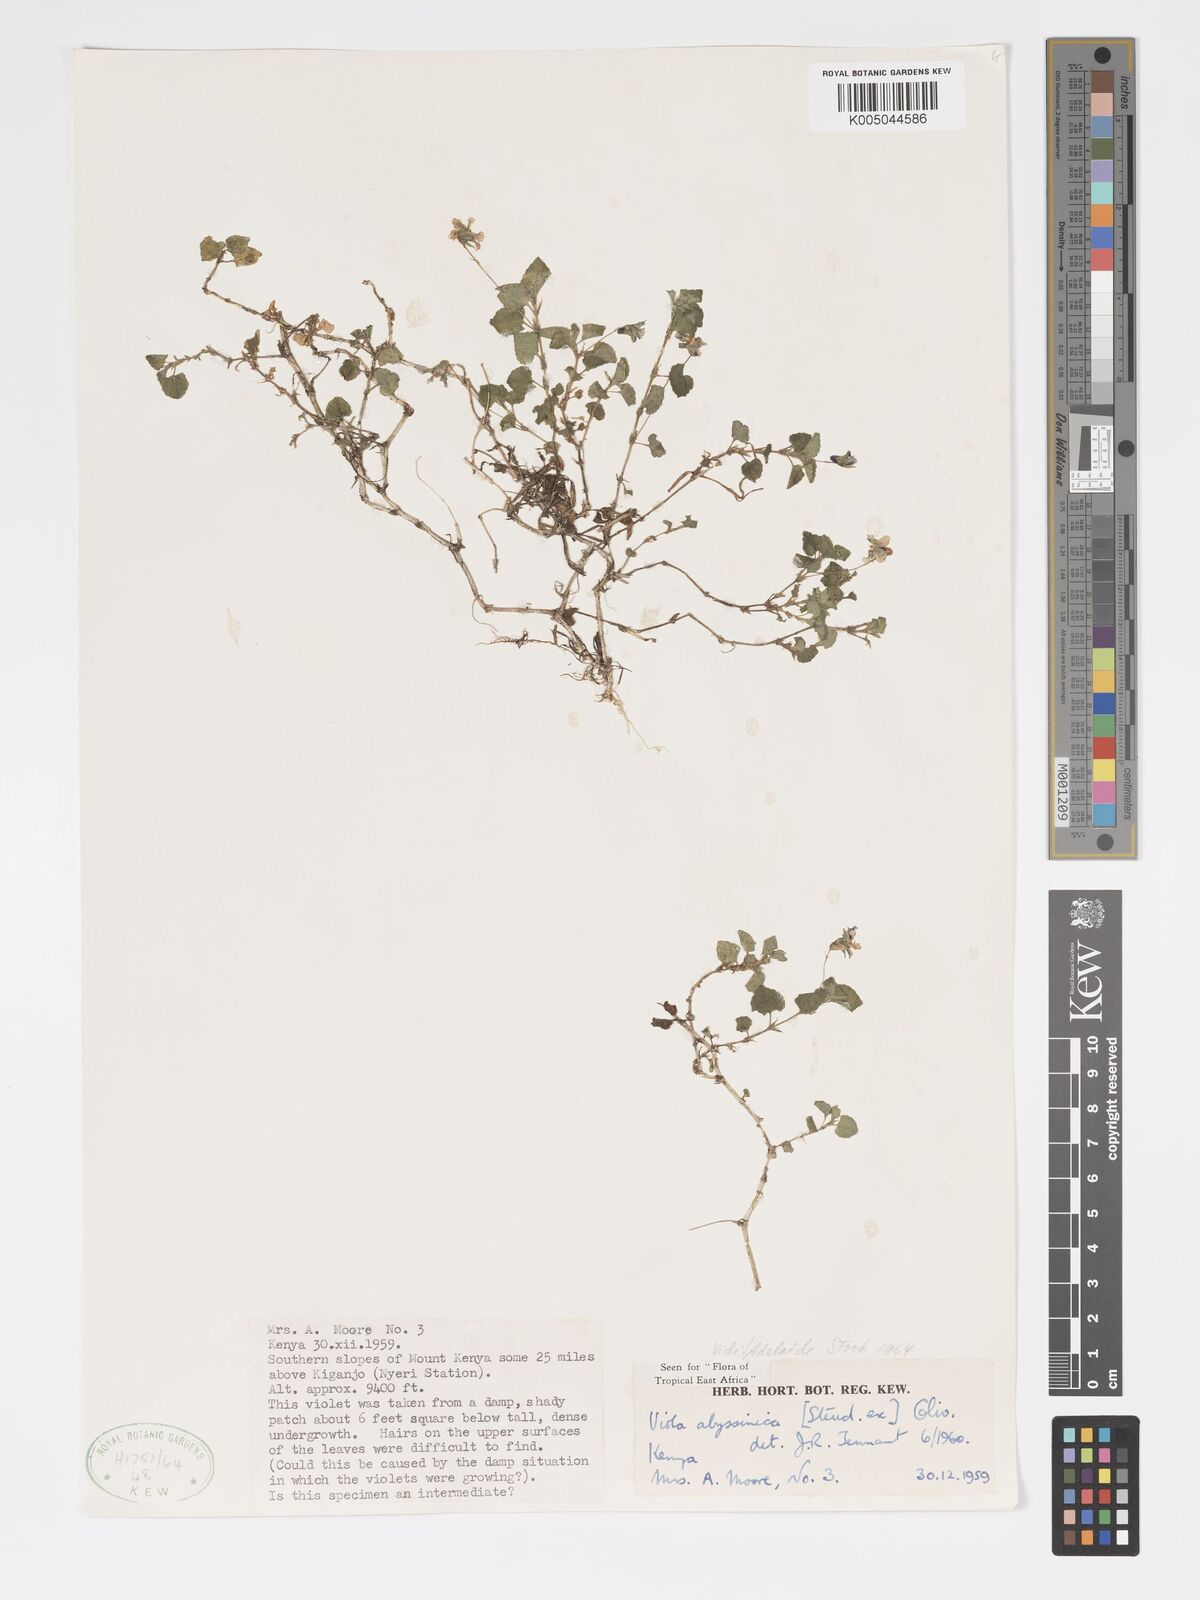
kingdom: Plantae
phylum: Tracheophyta
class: Magnoliopsida
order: Malpighiales
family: Violaceae
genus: Viola
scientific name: Viola abyssinica
